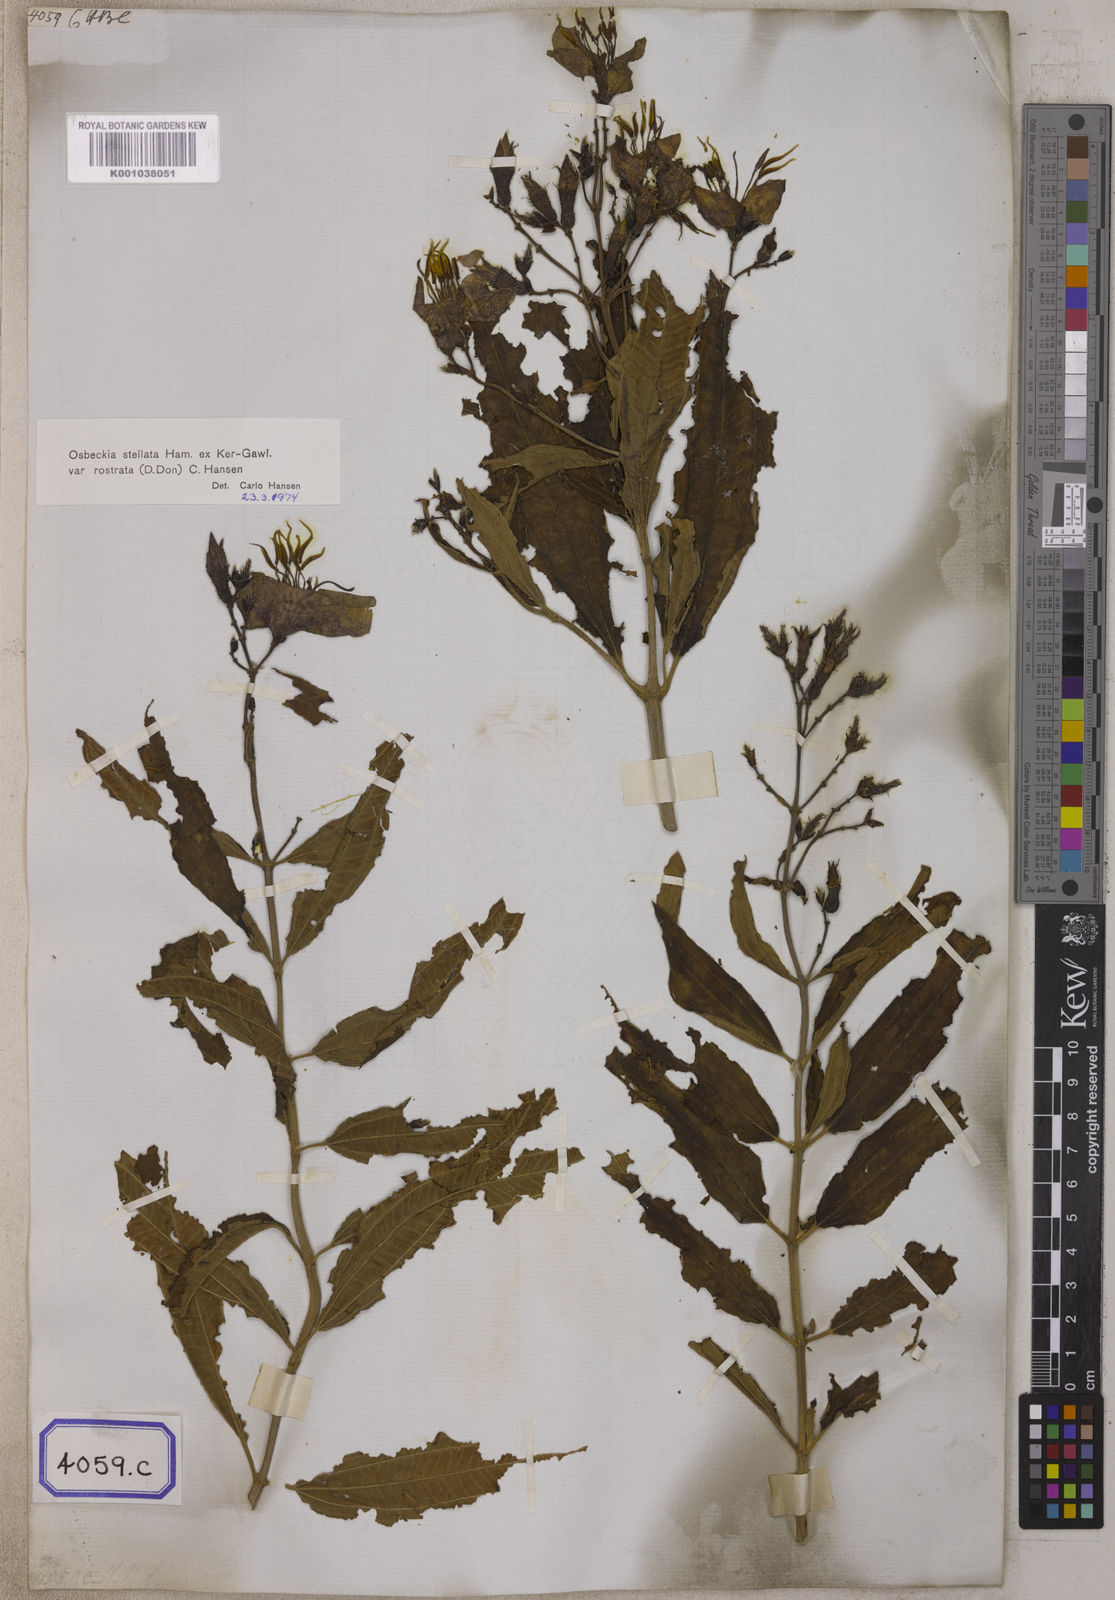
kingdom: Plantae
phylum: Tracheophyta
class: Magnoliopsida
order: Myrtales
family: Melastomataceae
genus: Osbeckia
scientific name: Osbeckia rostrata
